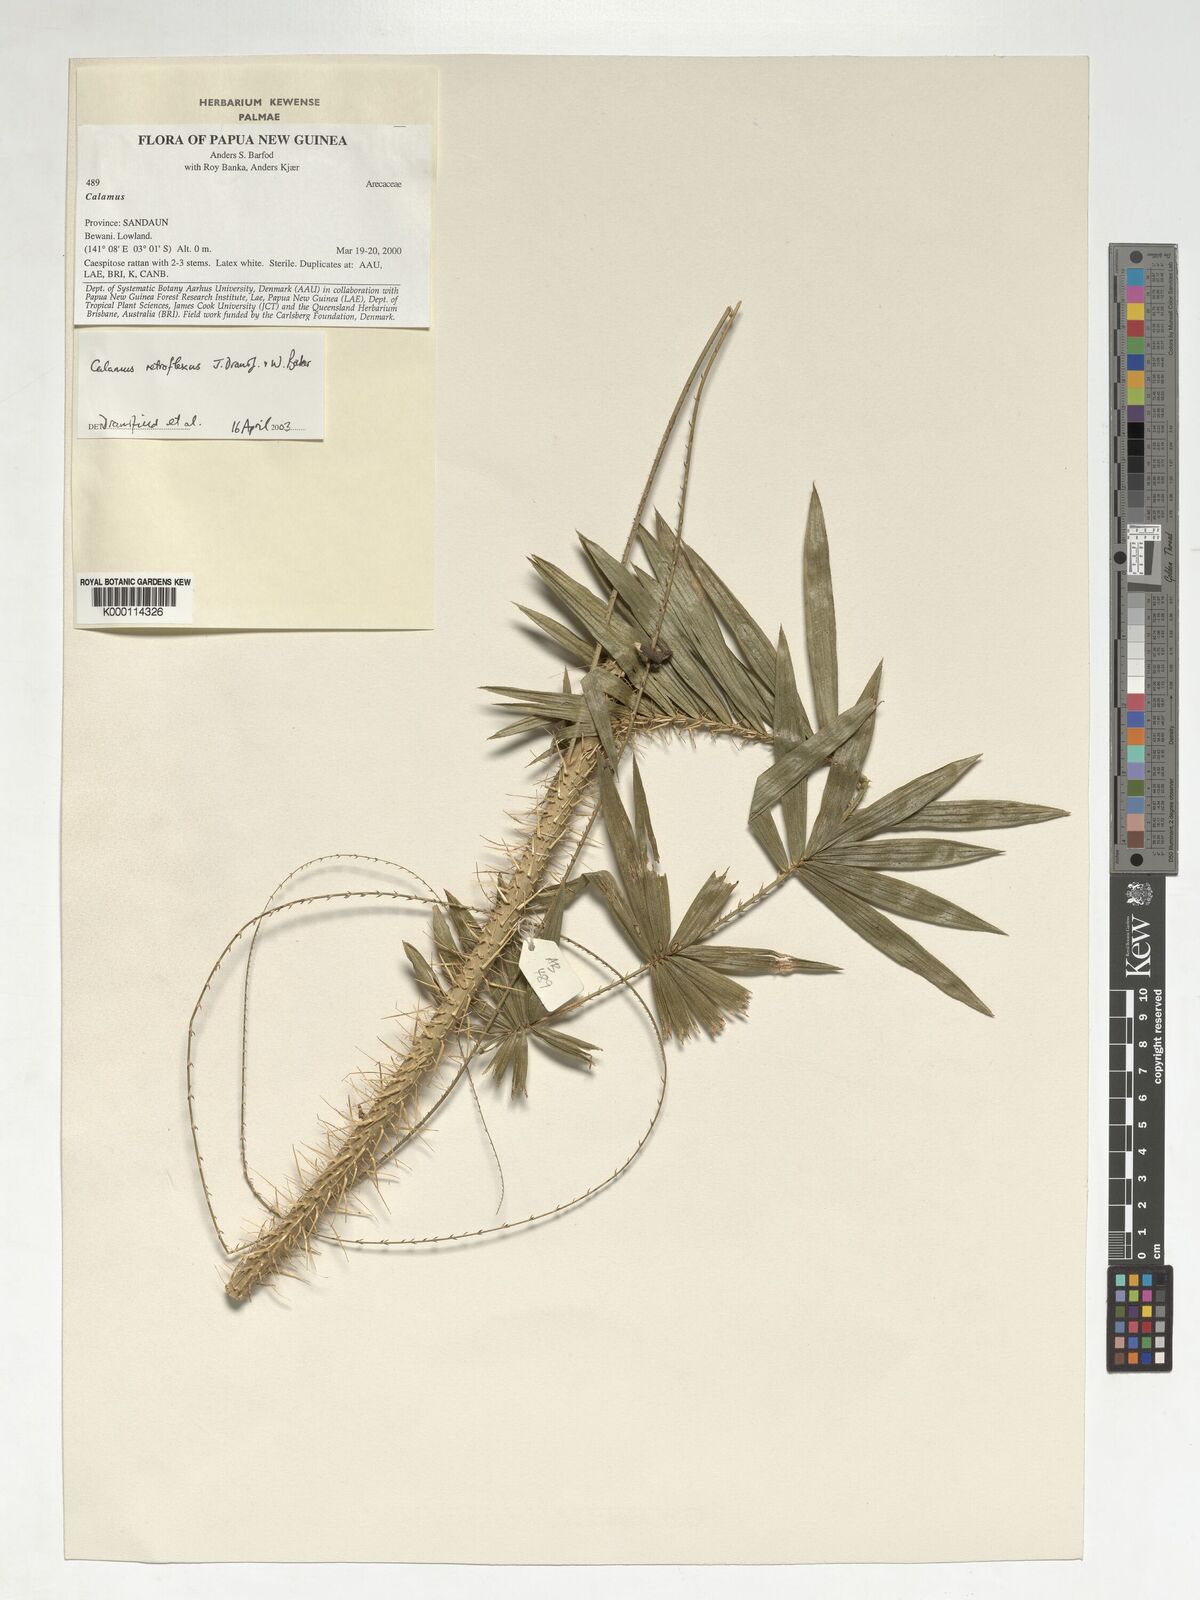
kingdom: Plantae
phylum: Tracheophyta
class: Liliopsida
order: Arecales
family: Arecaceae
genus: Calamus
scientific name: Calamus retroflexus
